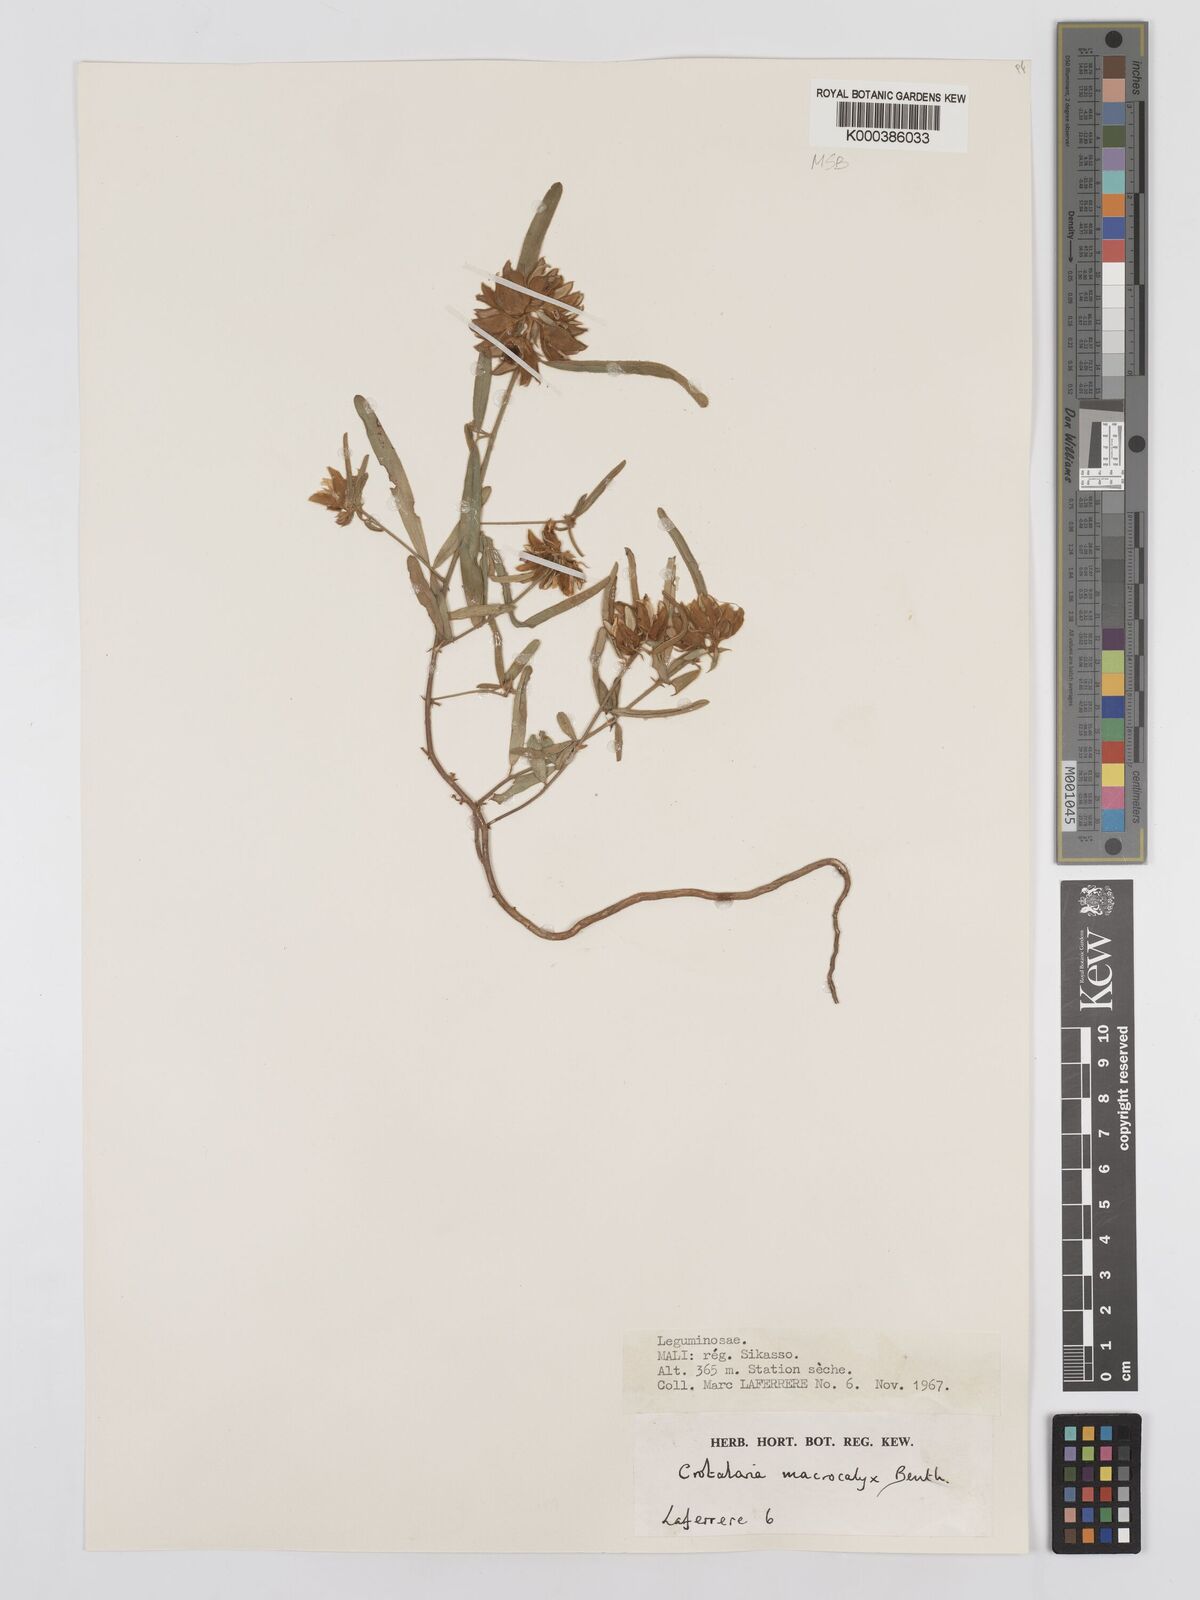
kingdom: Plantae
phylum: Tracheophyta
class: Magnoliopsida
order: Fabales
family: Fabaceae
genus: Crotalaria
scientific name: Crotalaria macrocalyx
